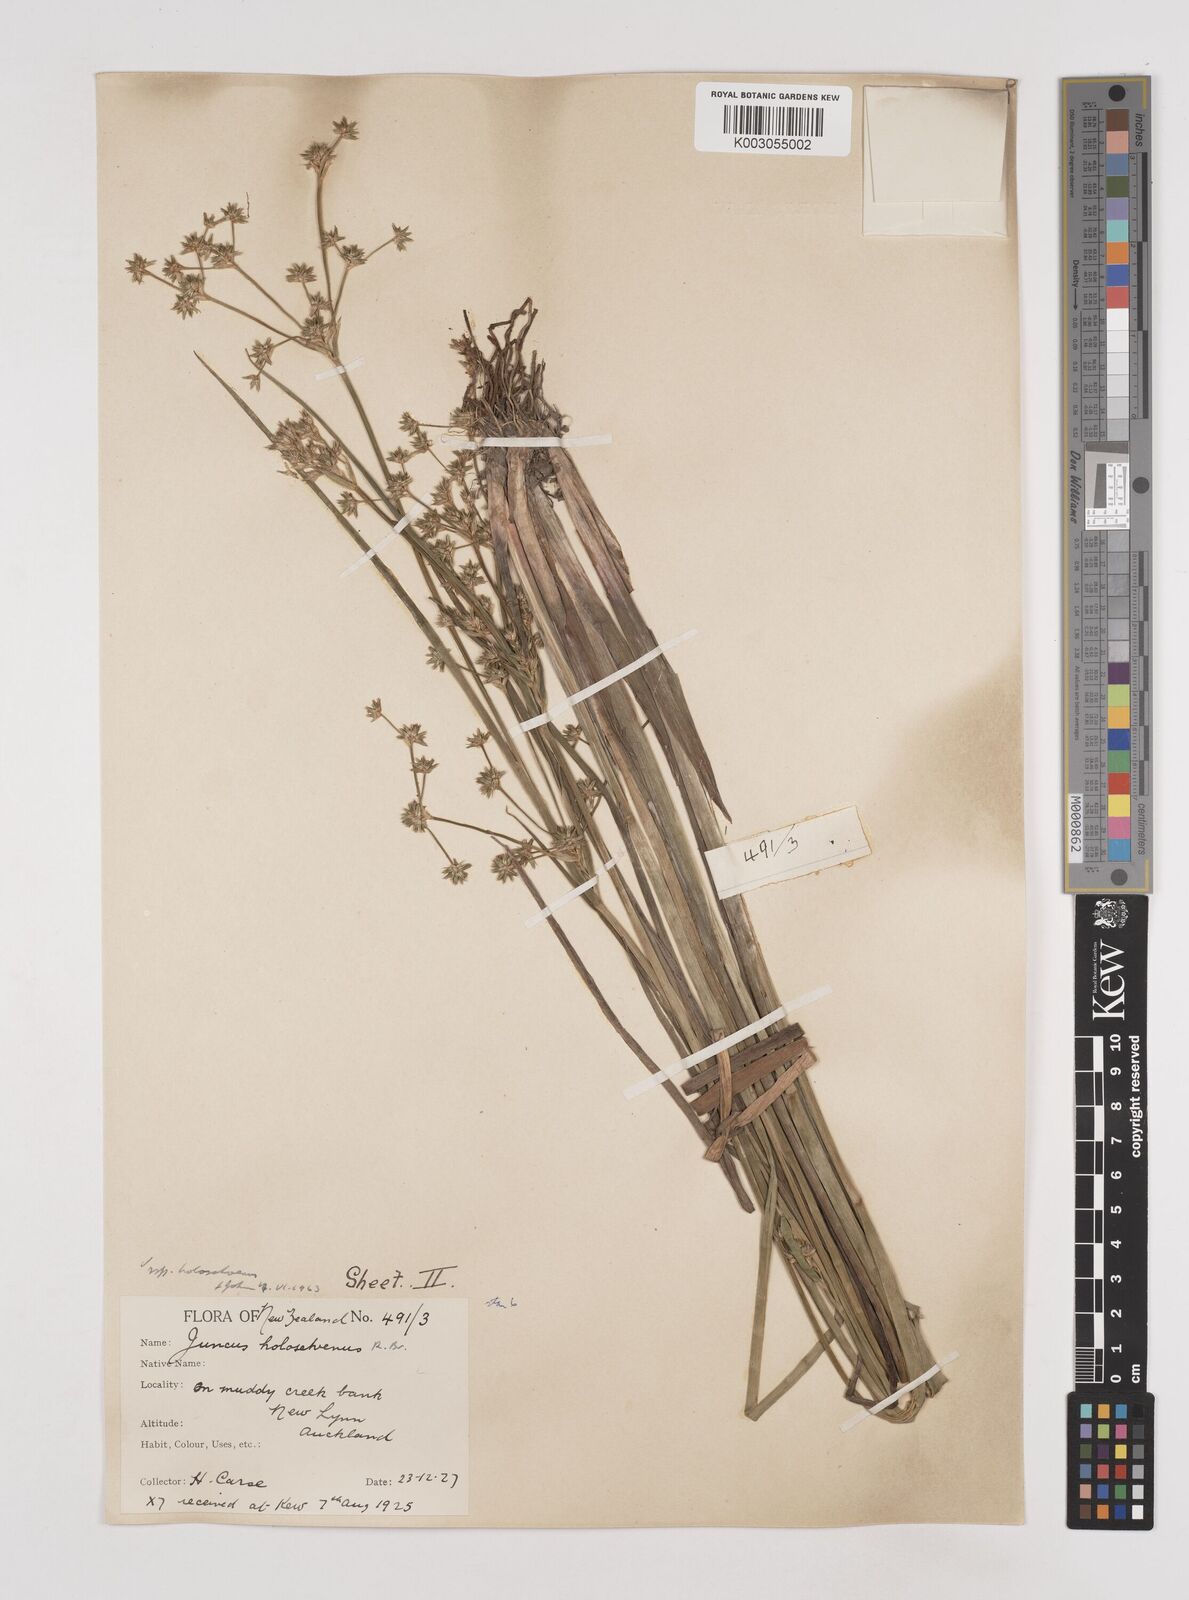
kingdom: Plantae
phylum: Tracheophyta
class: Liliopsida
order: Poales
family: Juncaceae
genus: Juncus
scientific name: Juncus holoschoenus
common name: Joint-leaf rush
